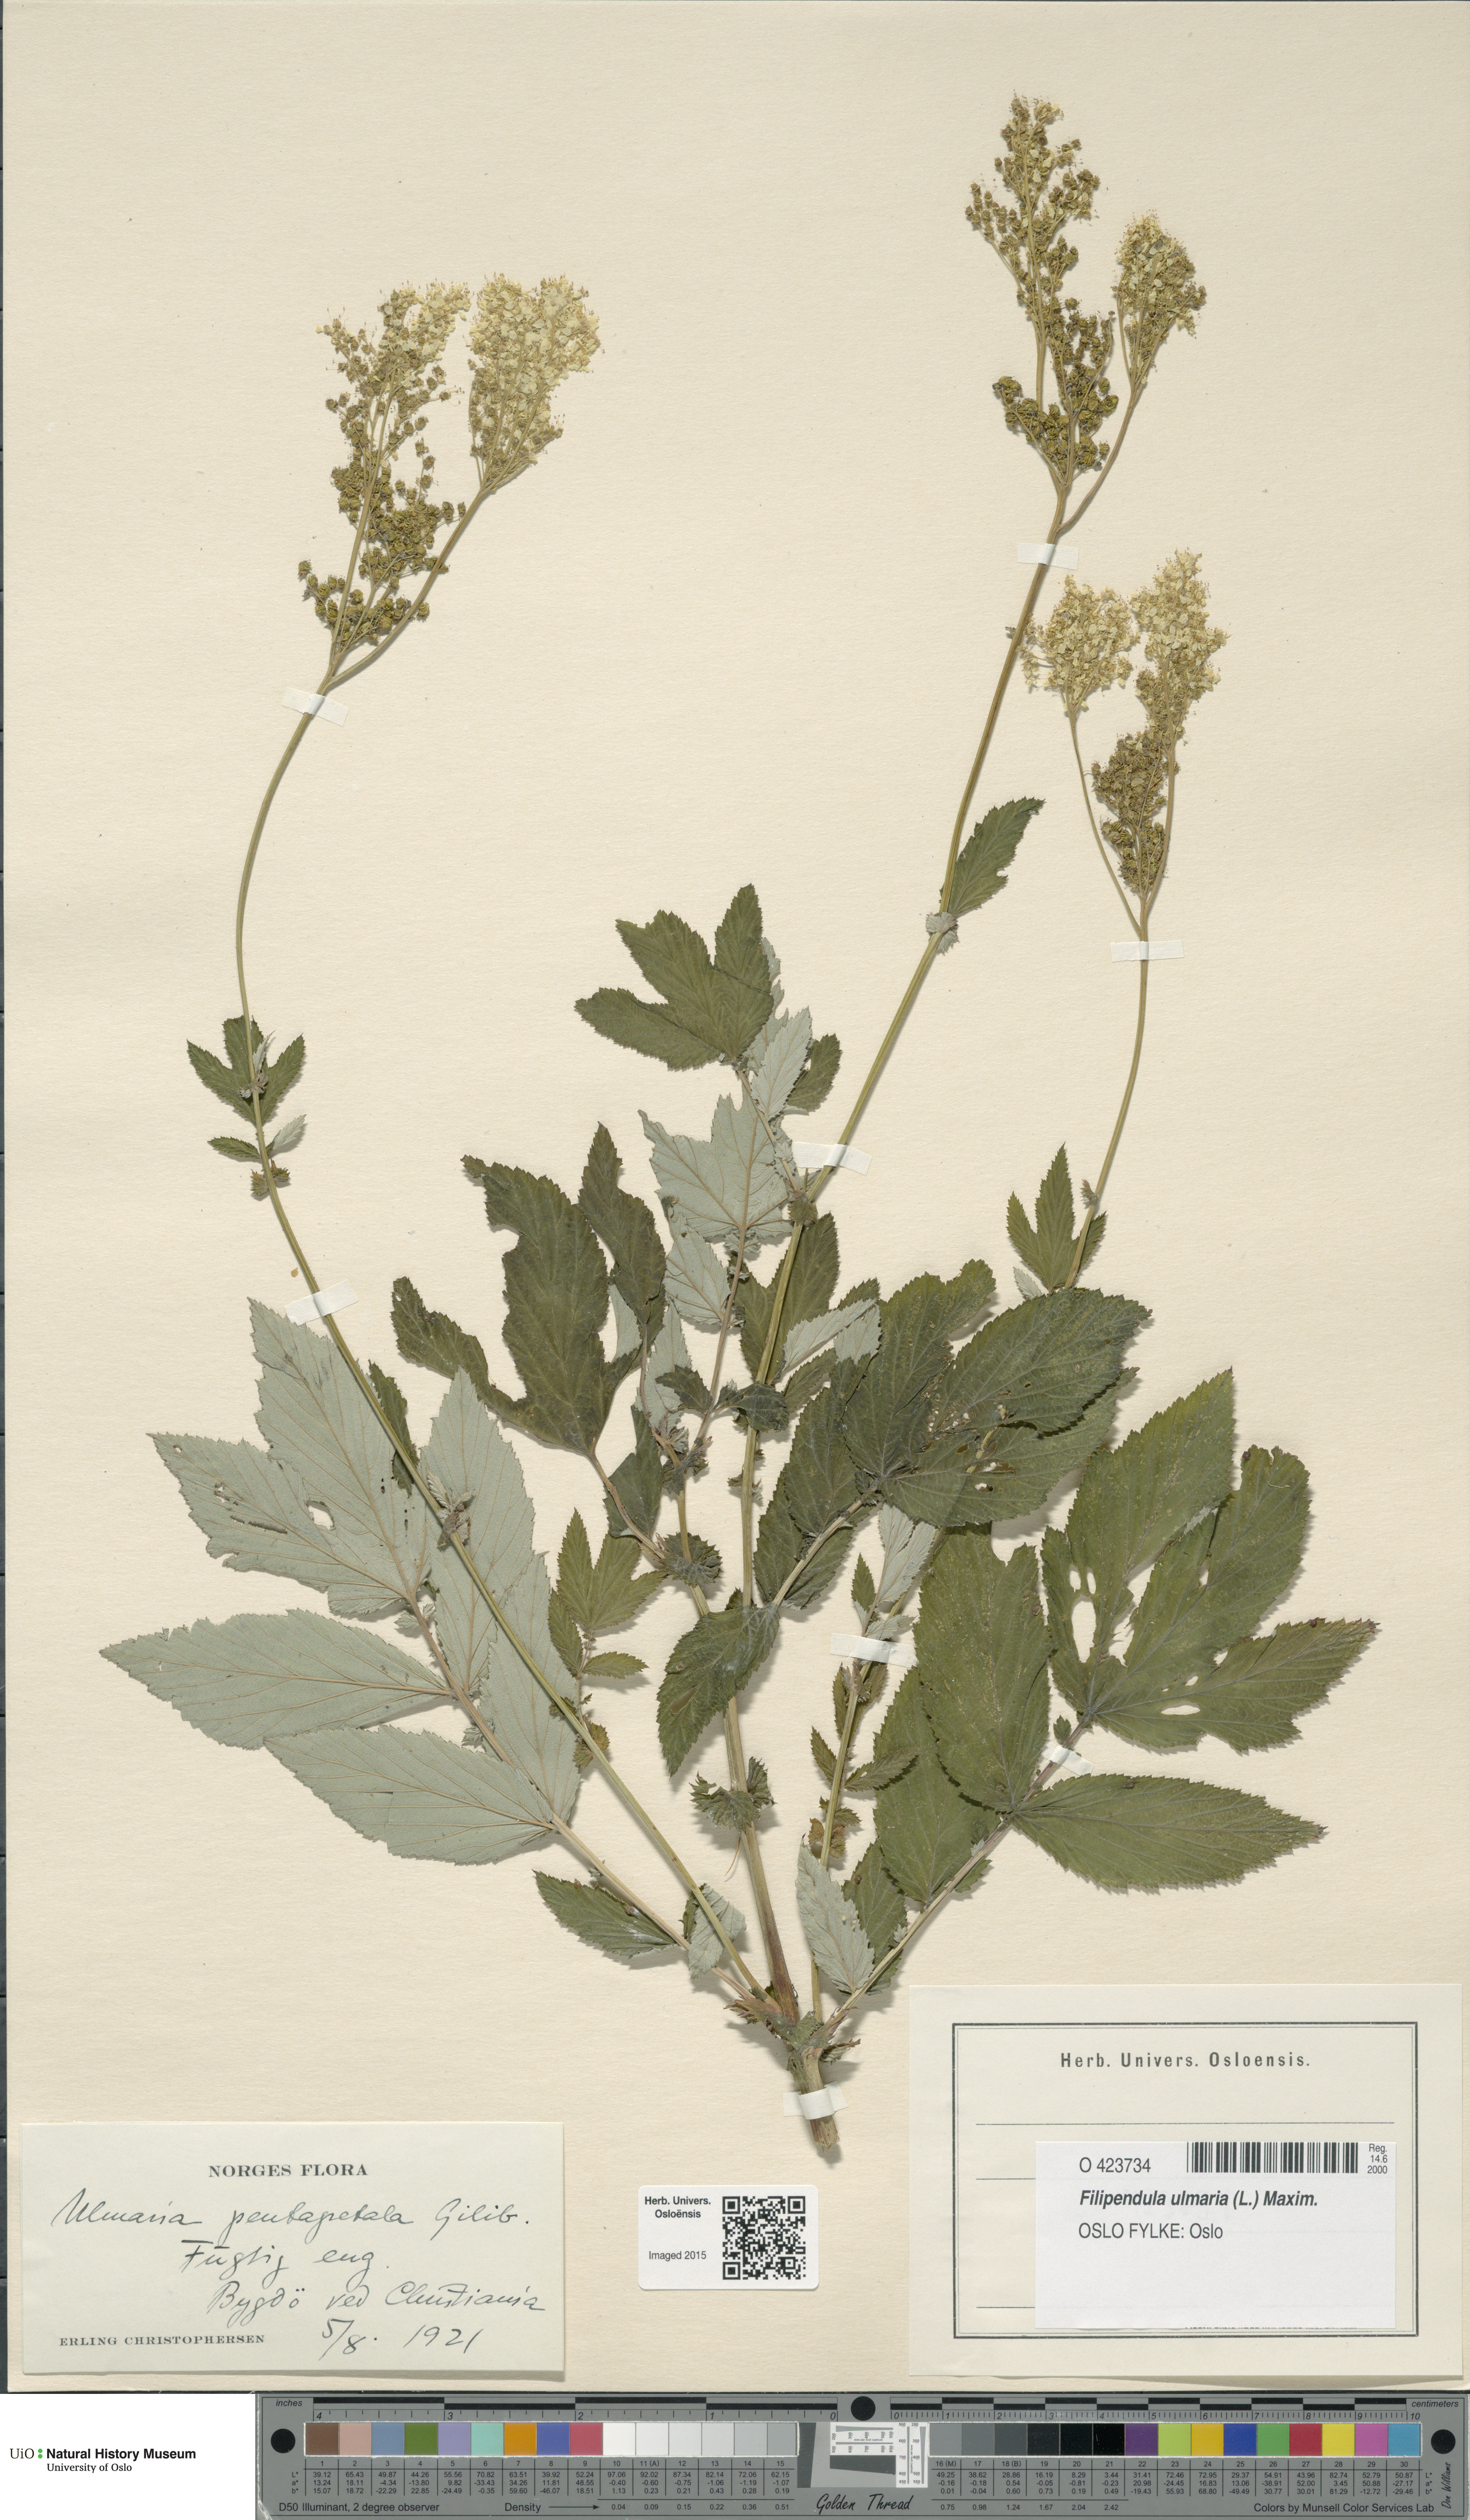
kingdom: Plantae
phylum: Tracheophyta
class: Magnoliopsida
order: Rosales
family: Rosaceae
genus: Filipendula
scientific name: Filipendula ulmaria
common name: Meadowsweet
